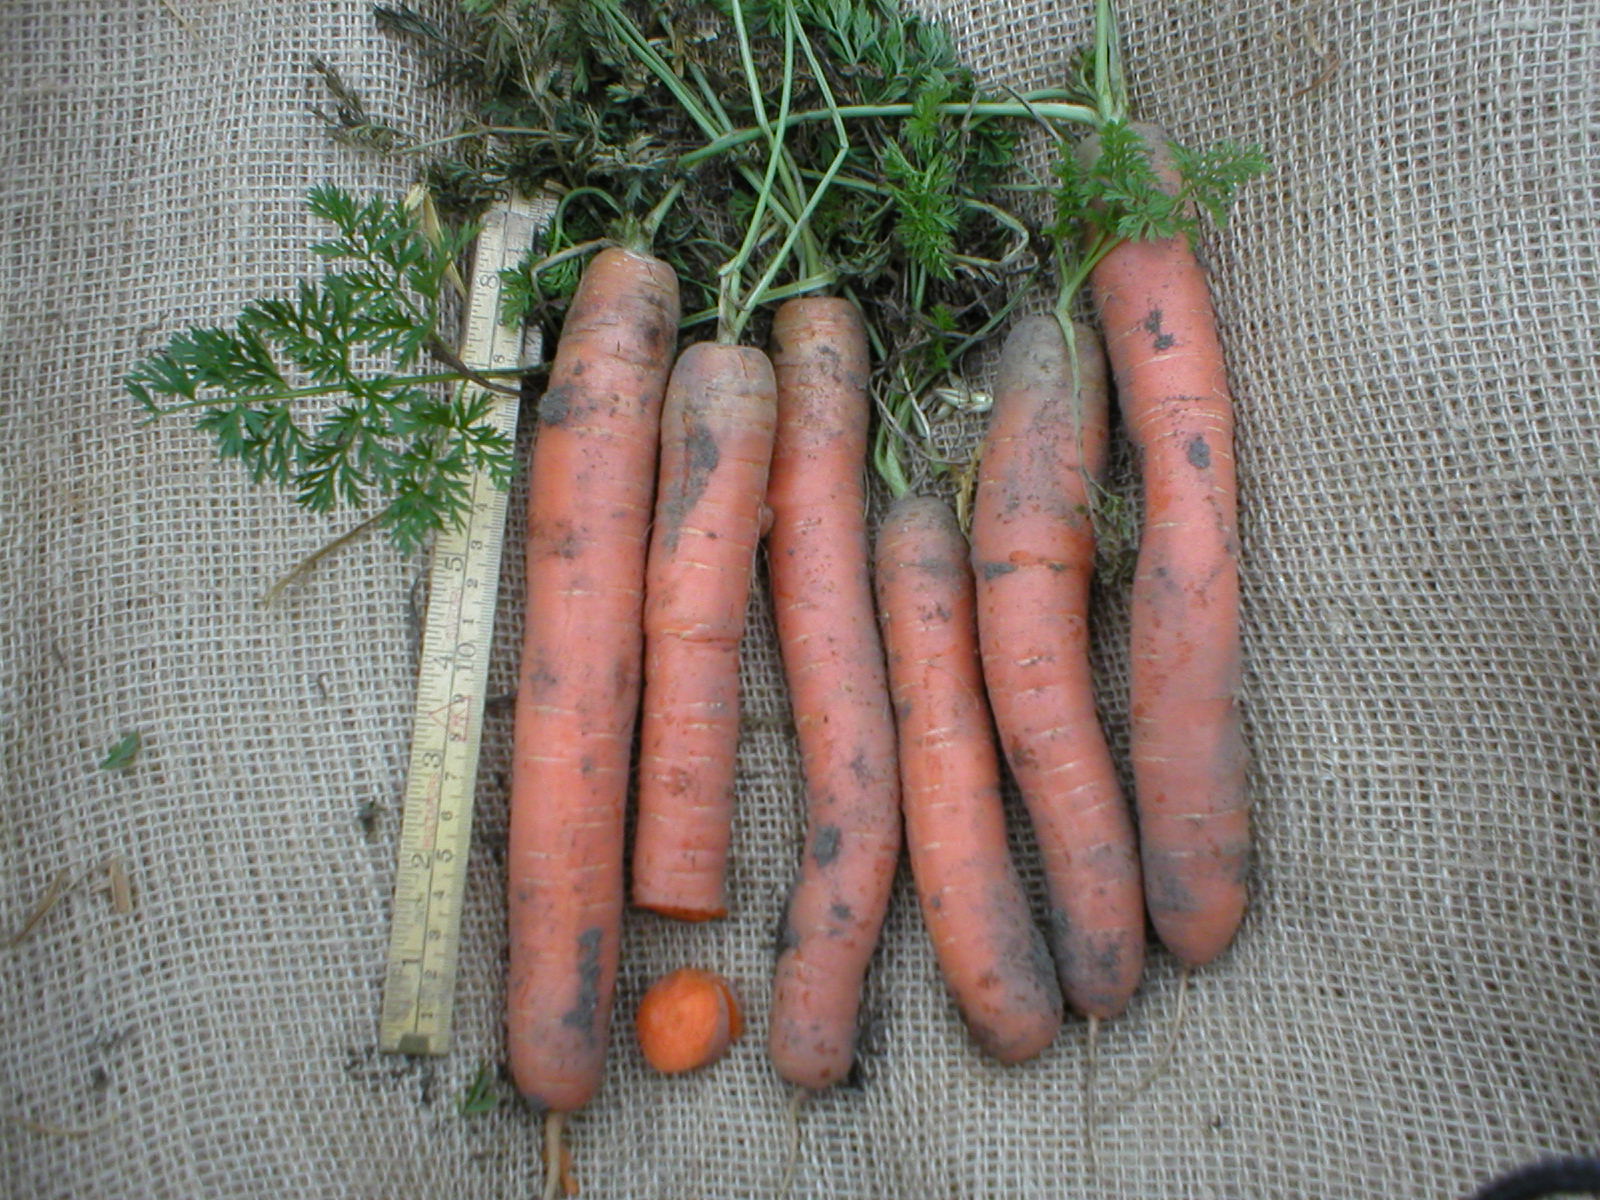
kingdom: Plantae
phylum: Tracheophyta
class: Magnoliopsida
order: Apiales
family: Apiaceae
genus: Daucus
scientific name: Daucus carota
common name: Wild carrot
